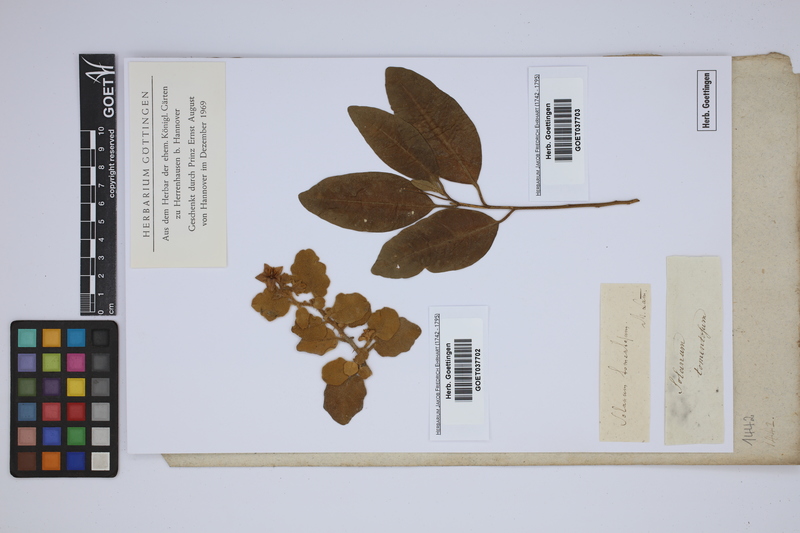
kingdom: Plantae
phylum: Tracheophyta
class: Magnoliopsida
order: Solanales
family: Solanaceae
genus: Solanum
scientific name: Solanum tomentosum
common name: Wild aubergine
